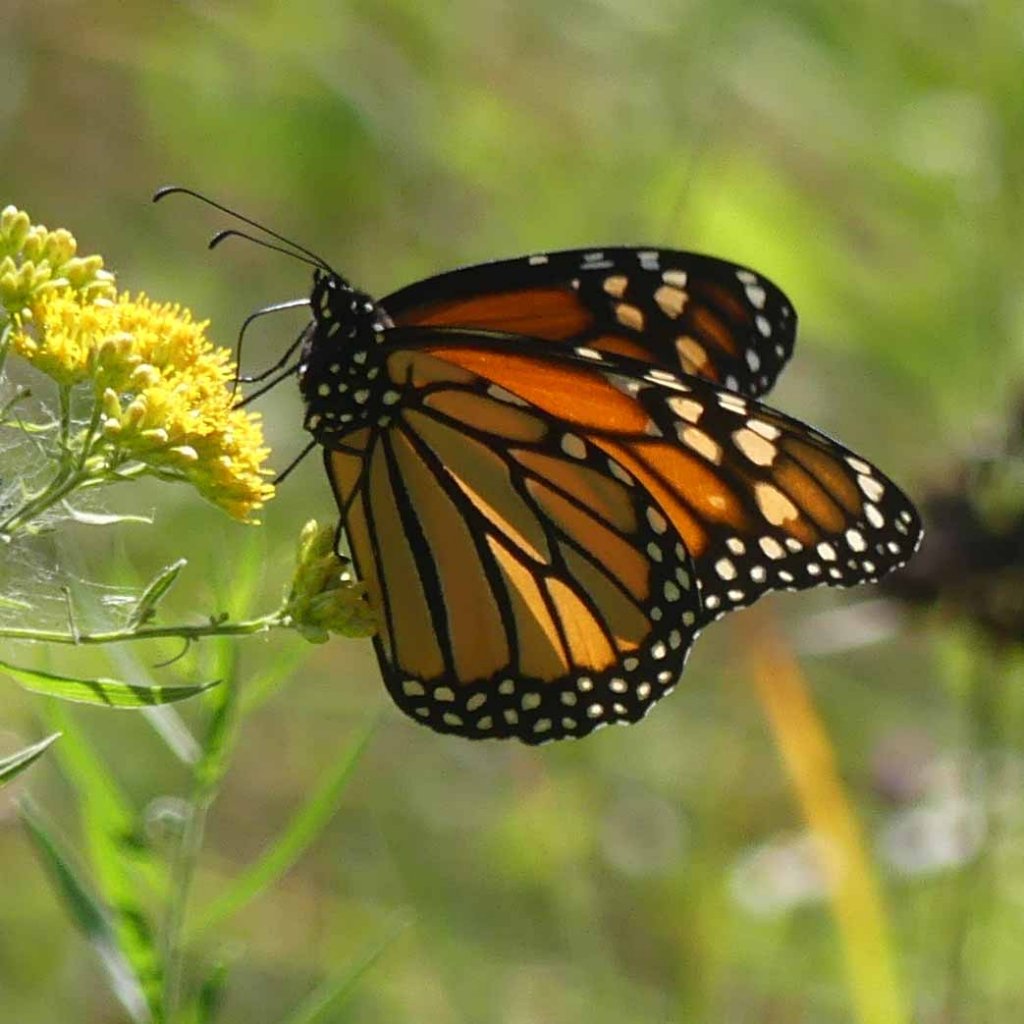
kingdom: Animalia
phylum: Arthropoda
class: Insecta
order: Lepidoptera
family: Nymphalidae
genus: Danaus
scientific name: Danaus plexippus
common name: Monarch
